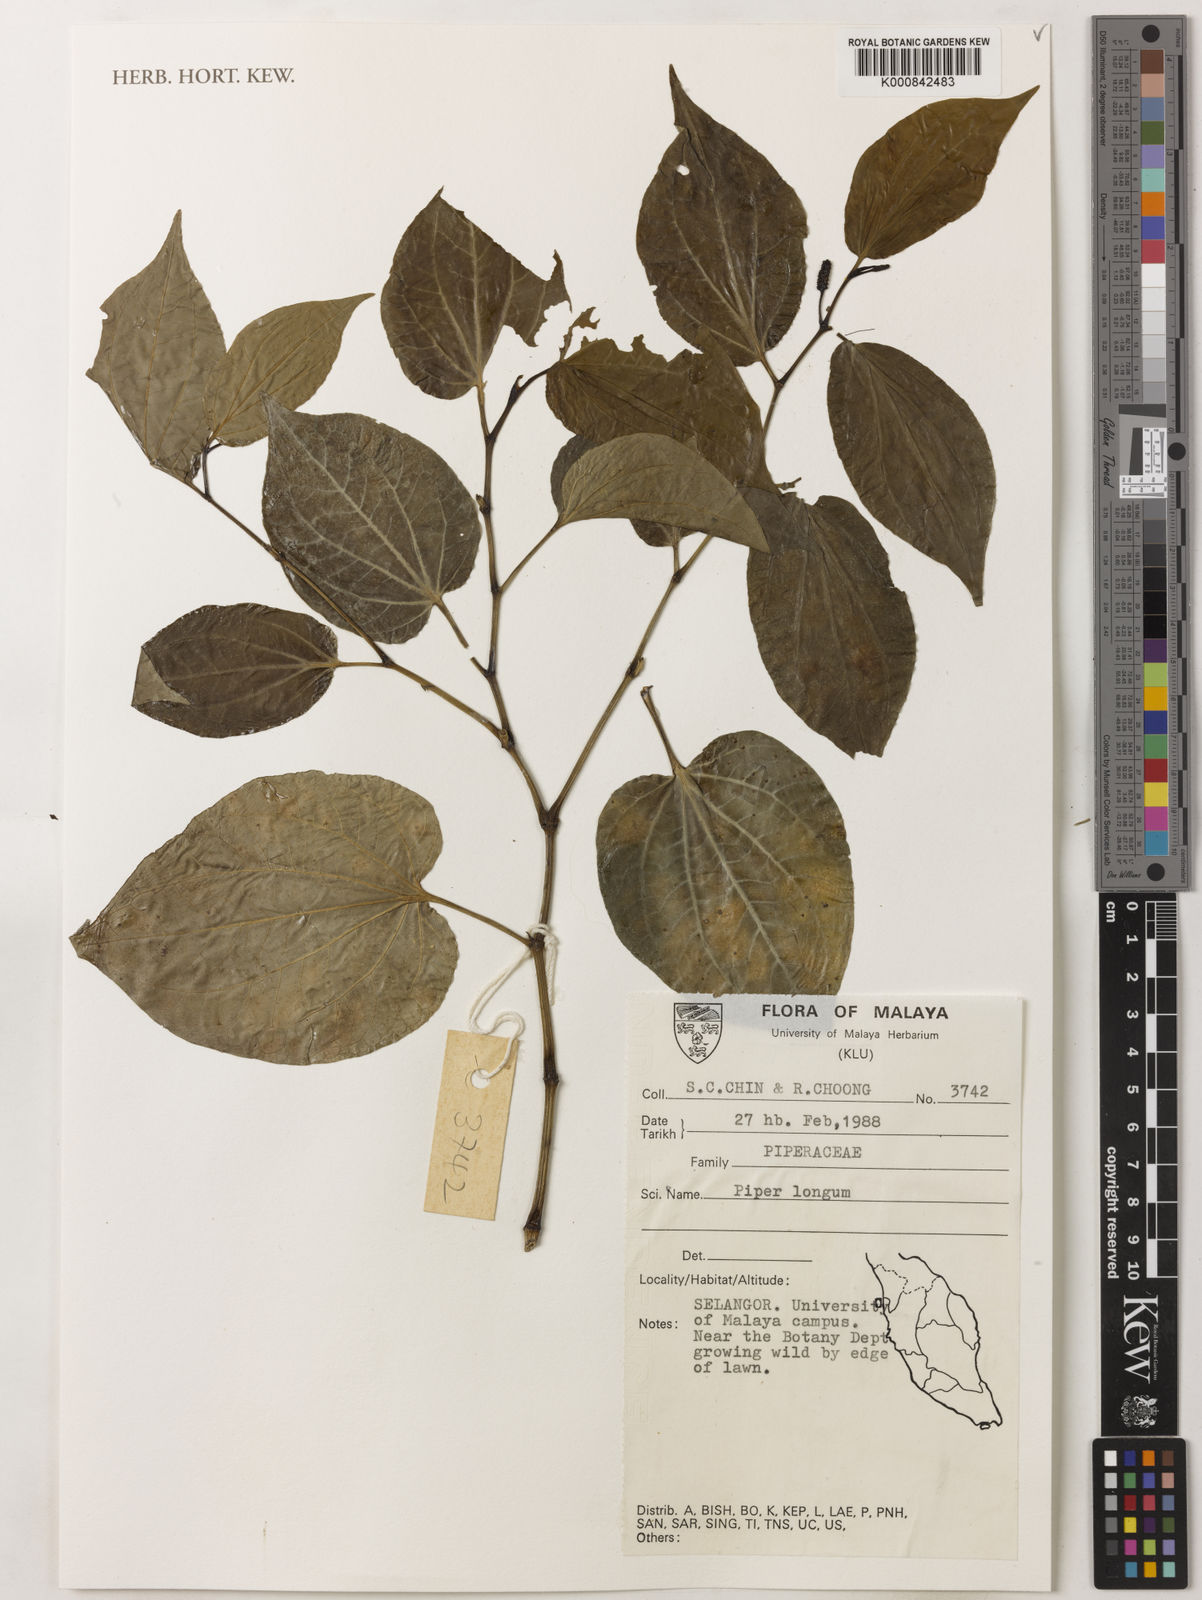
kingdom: Plantae
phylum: Tracheophyta
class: Magnoliopsida
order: Piperales
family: Piperaceae
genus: Piper
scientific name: Piper longum
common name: Long pepper
